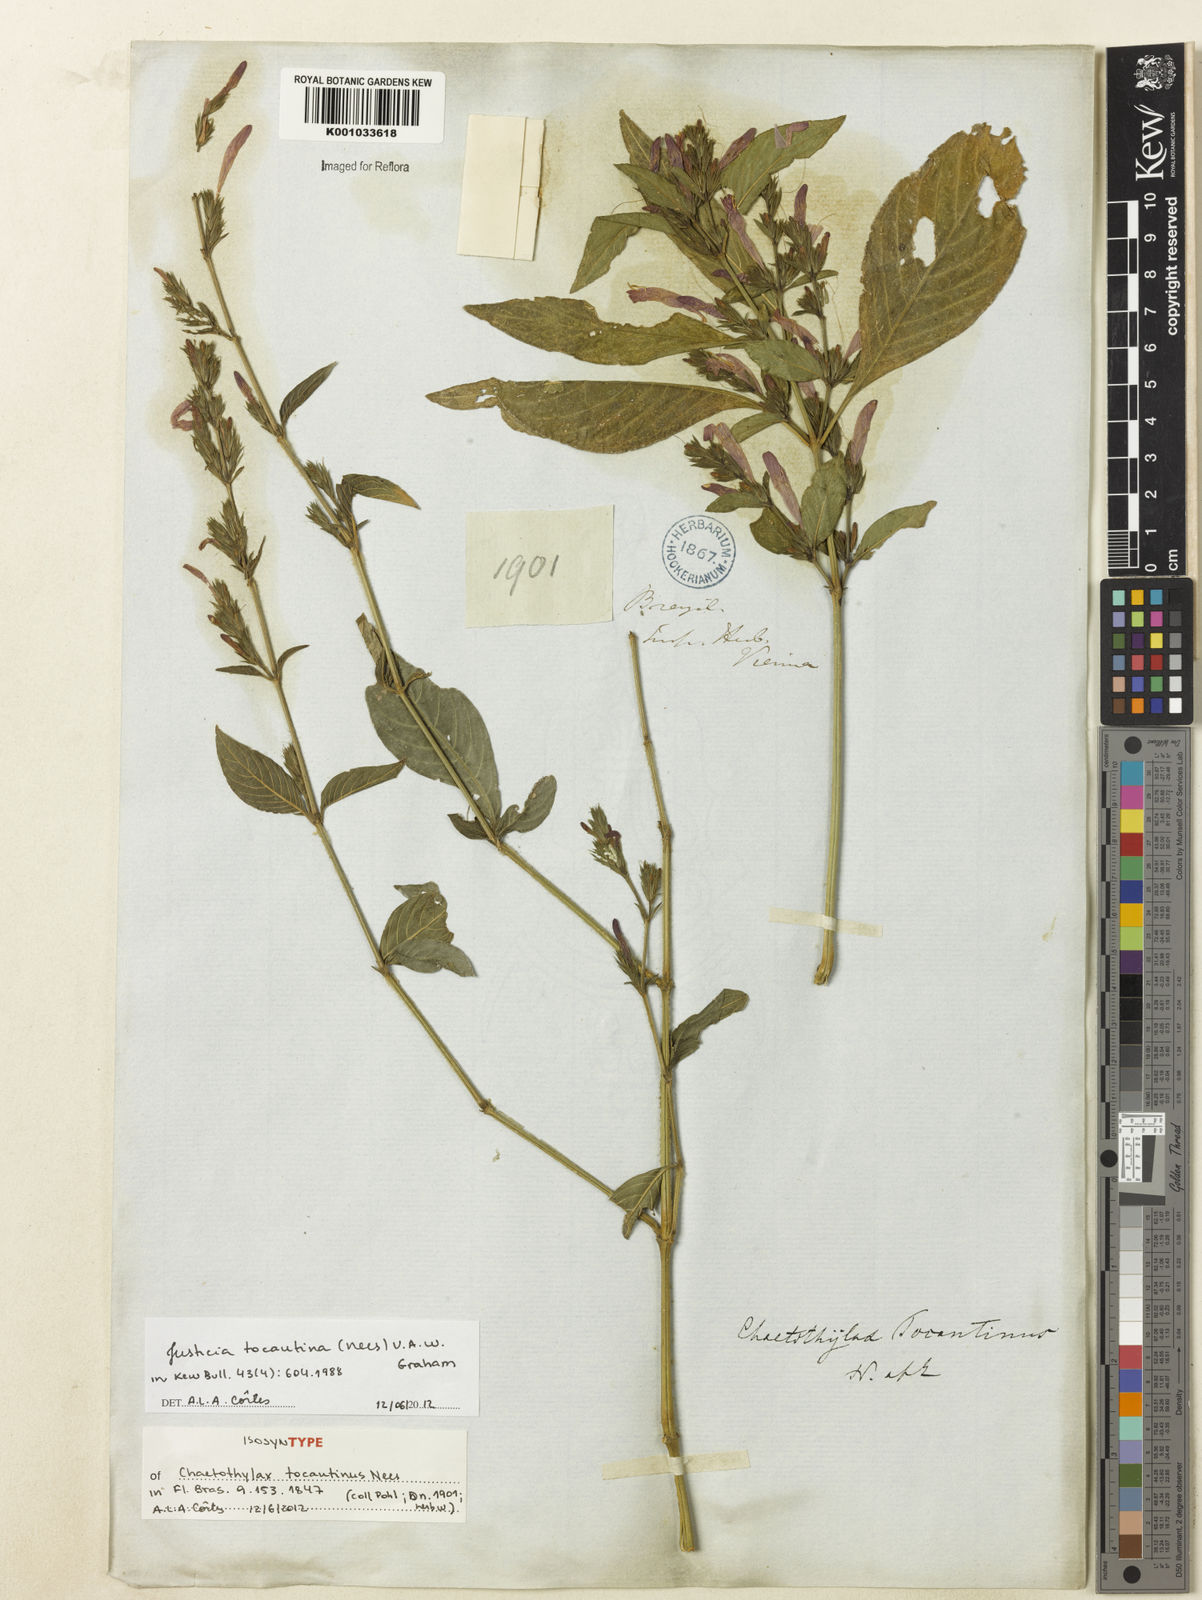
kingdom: Plantae
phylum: Tracheophyta
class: Magnoliopsida
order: Lamiales
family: Acanthaceae
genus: Justicia
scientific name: Justicia tocantina
